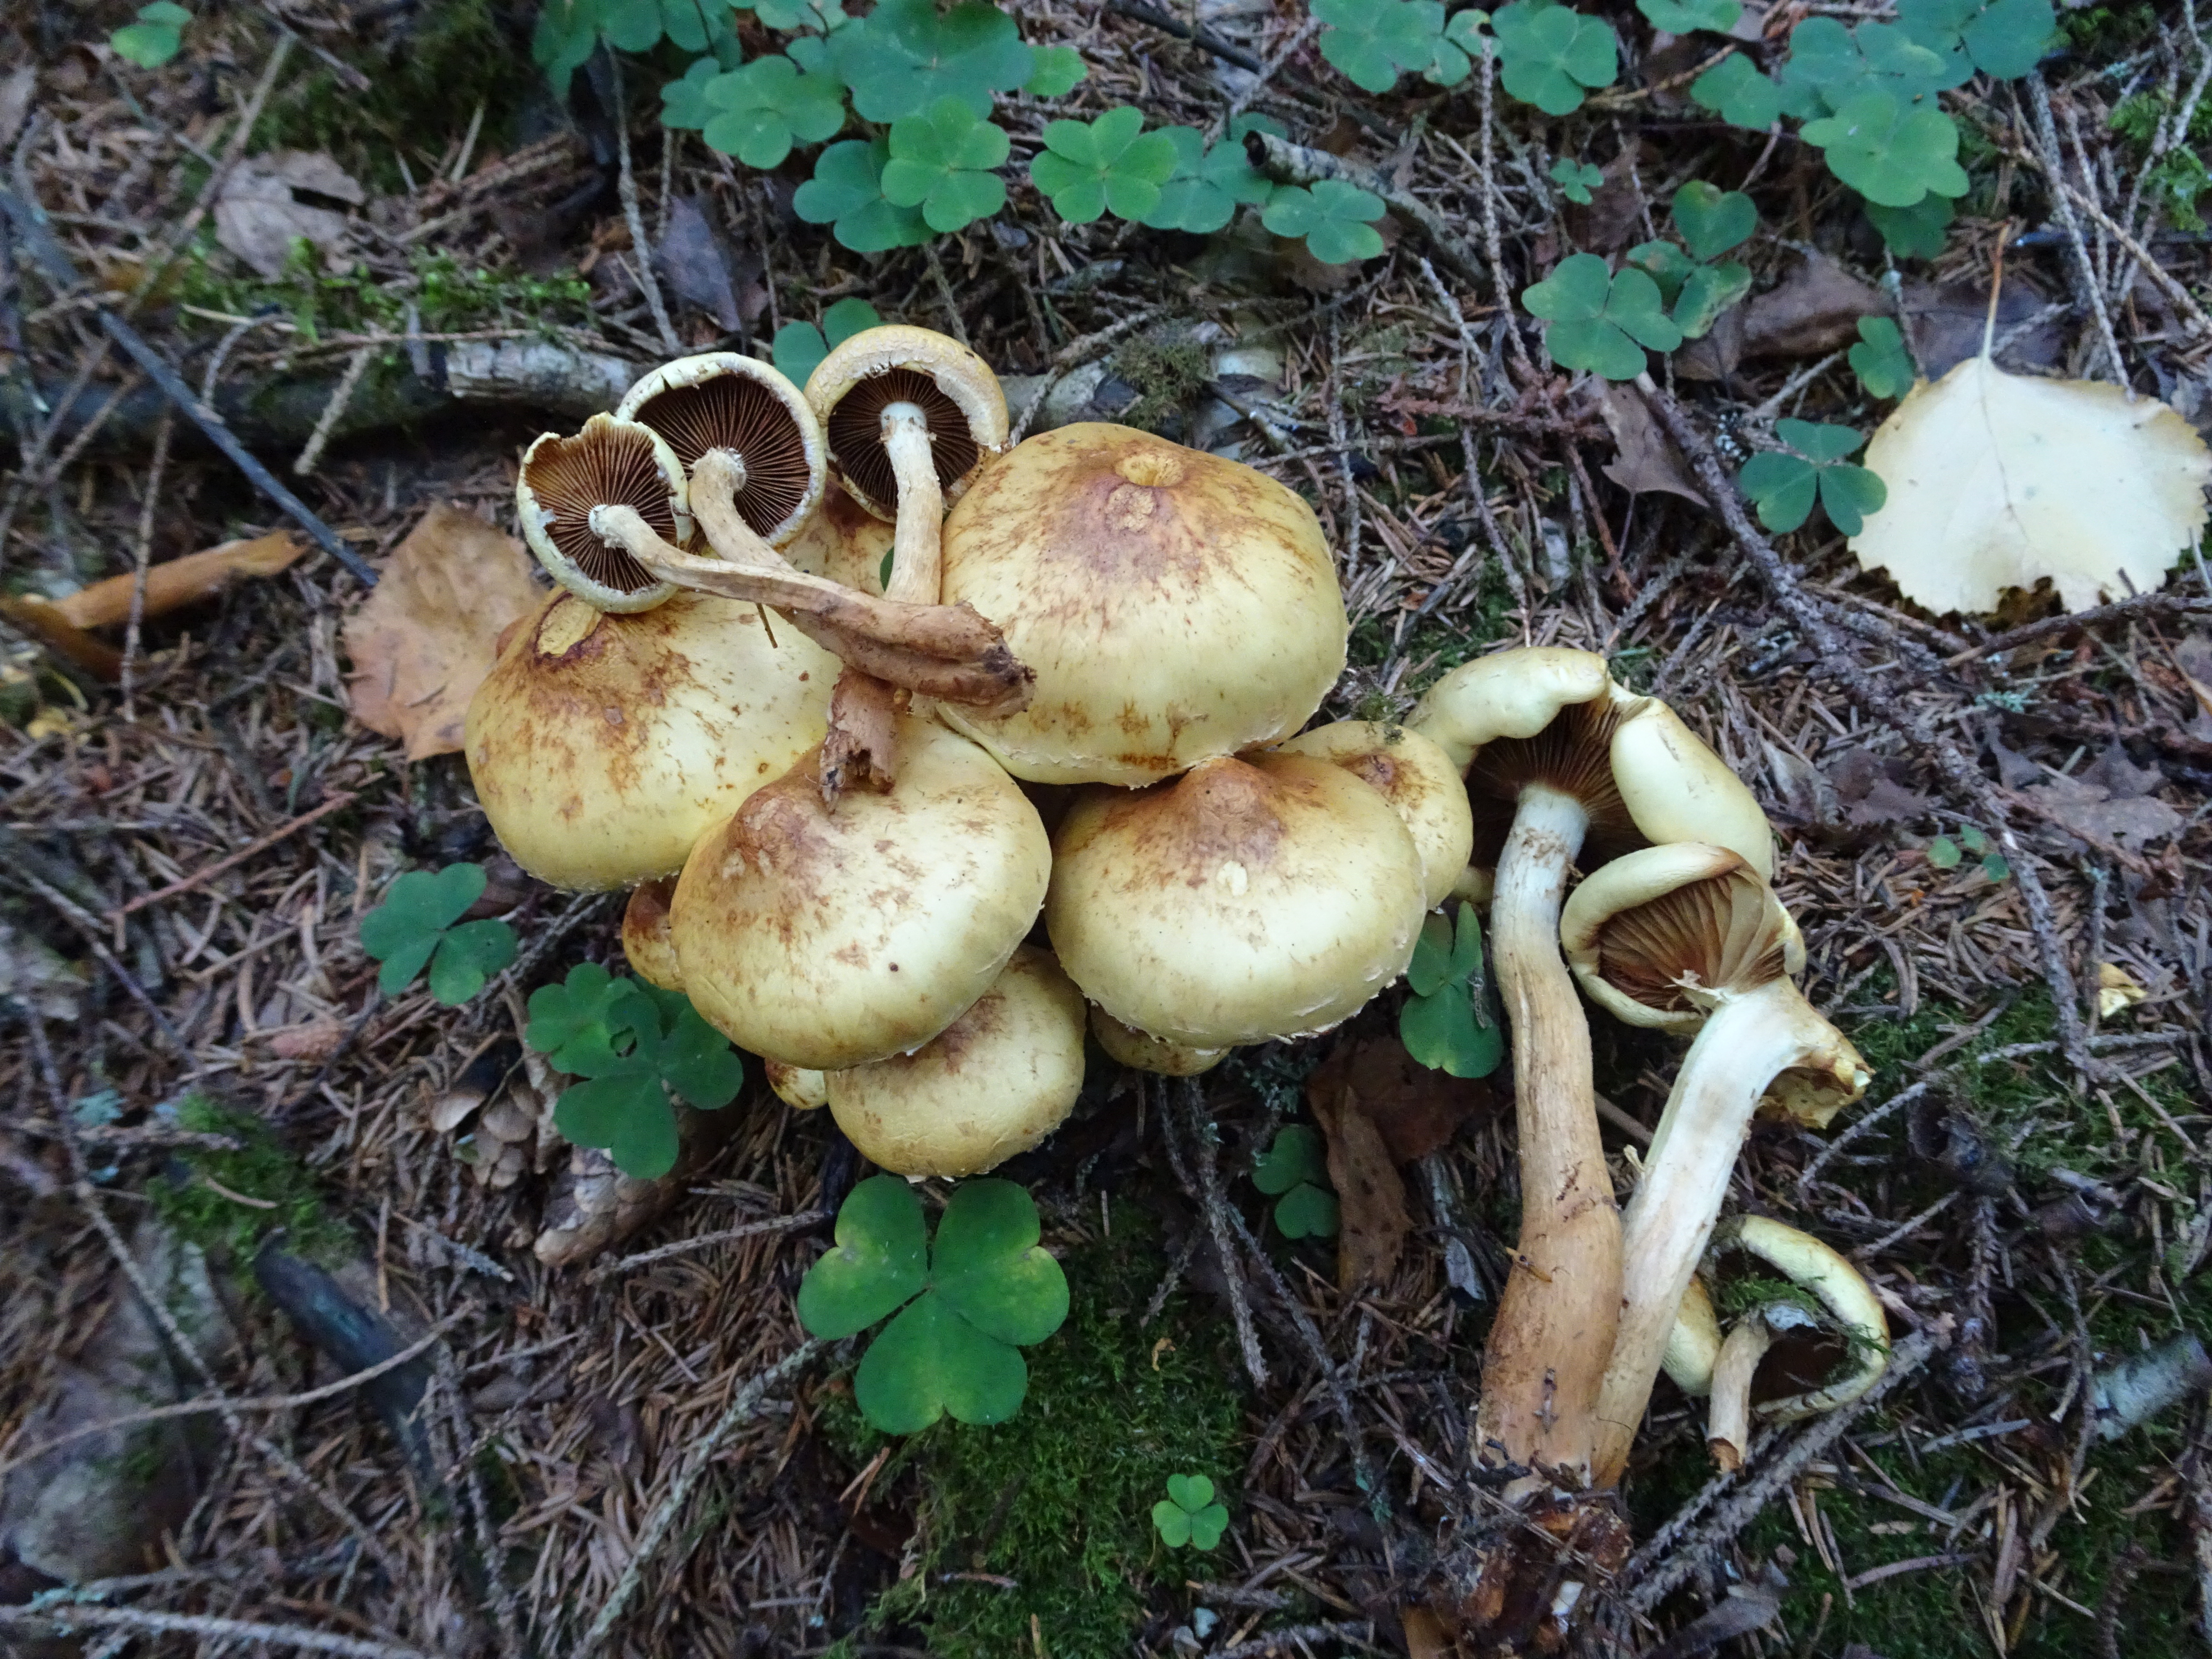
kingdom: Fungi
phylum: Basidiomycota
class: Agaricomycetes
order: Agaricales
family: Hymenogastraceae
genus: Flammula
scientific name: Flammula alnicola
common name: Alder scalycap
